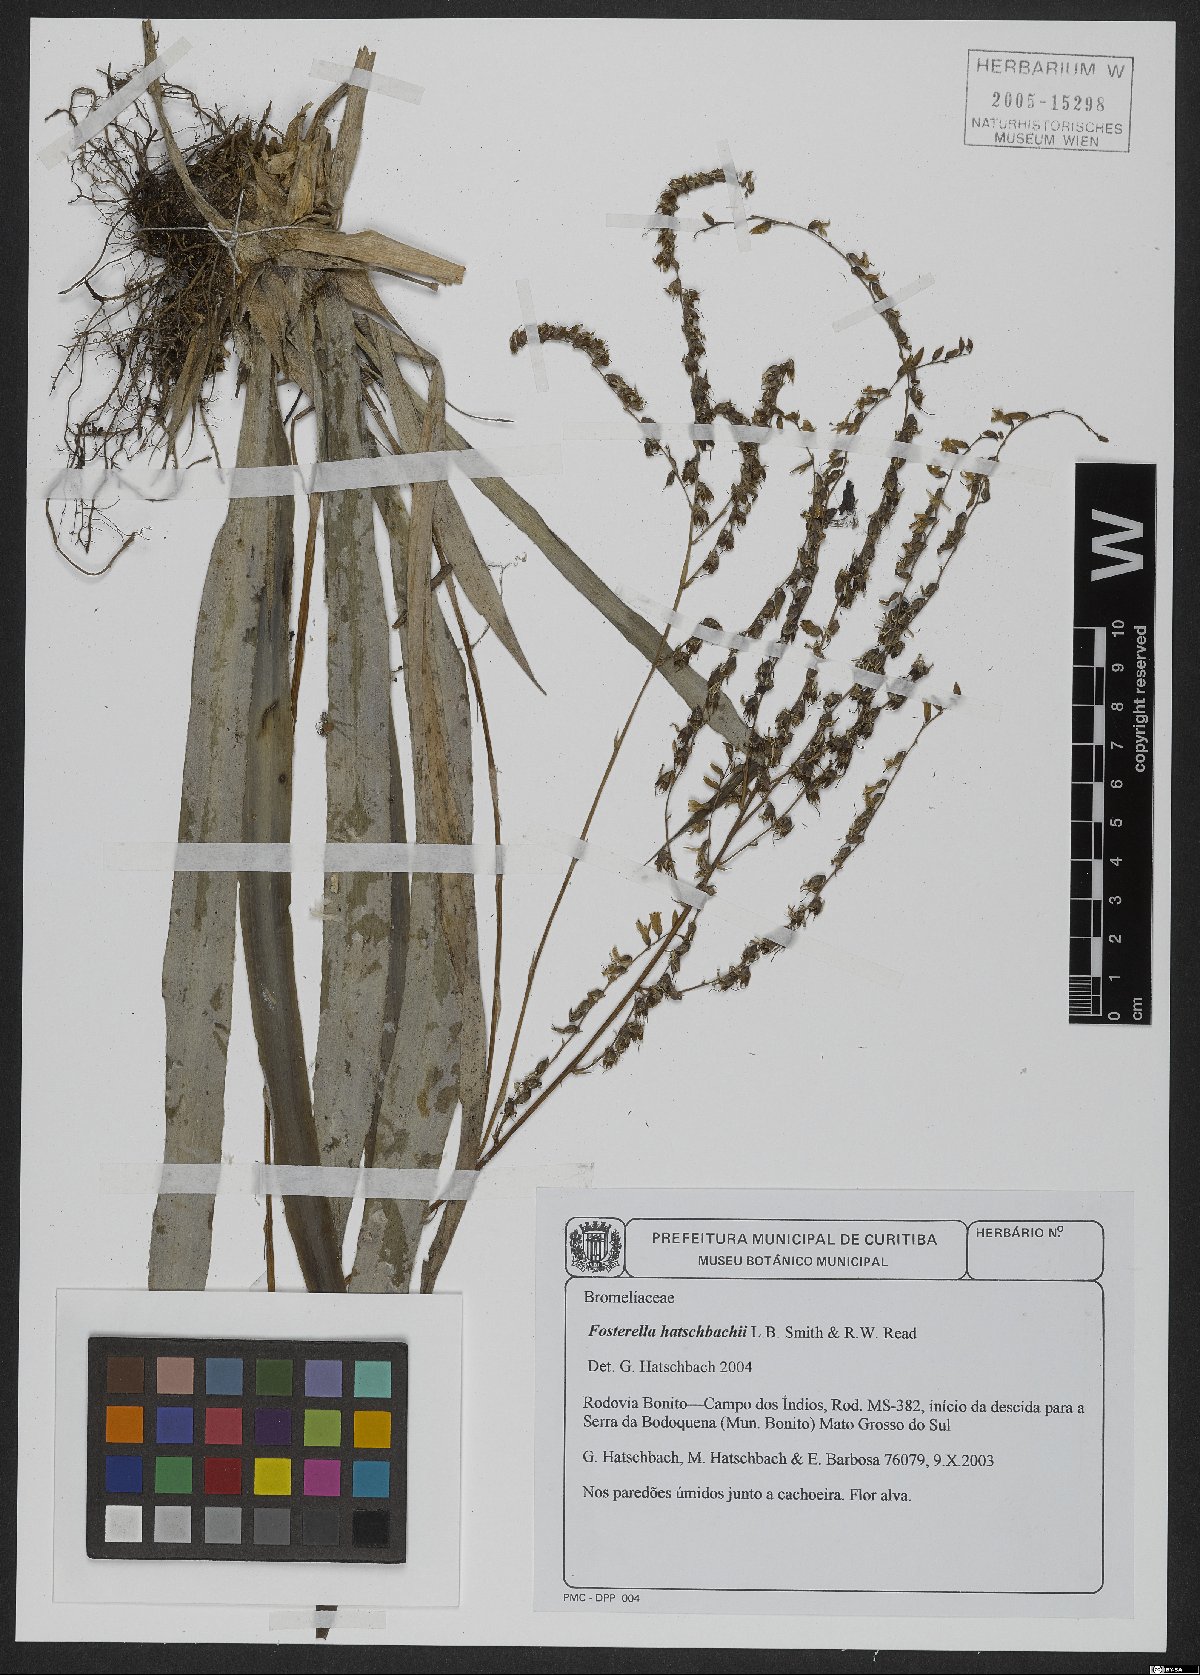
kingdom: Plantae
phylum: Tracheophyta
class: Liliopsida
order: Poales
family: Bromeliaceae
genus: Fosterella
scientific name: Fosterella hatschbachii
